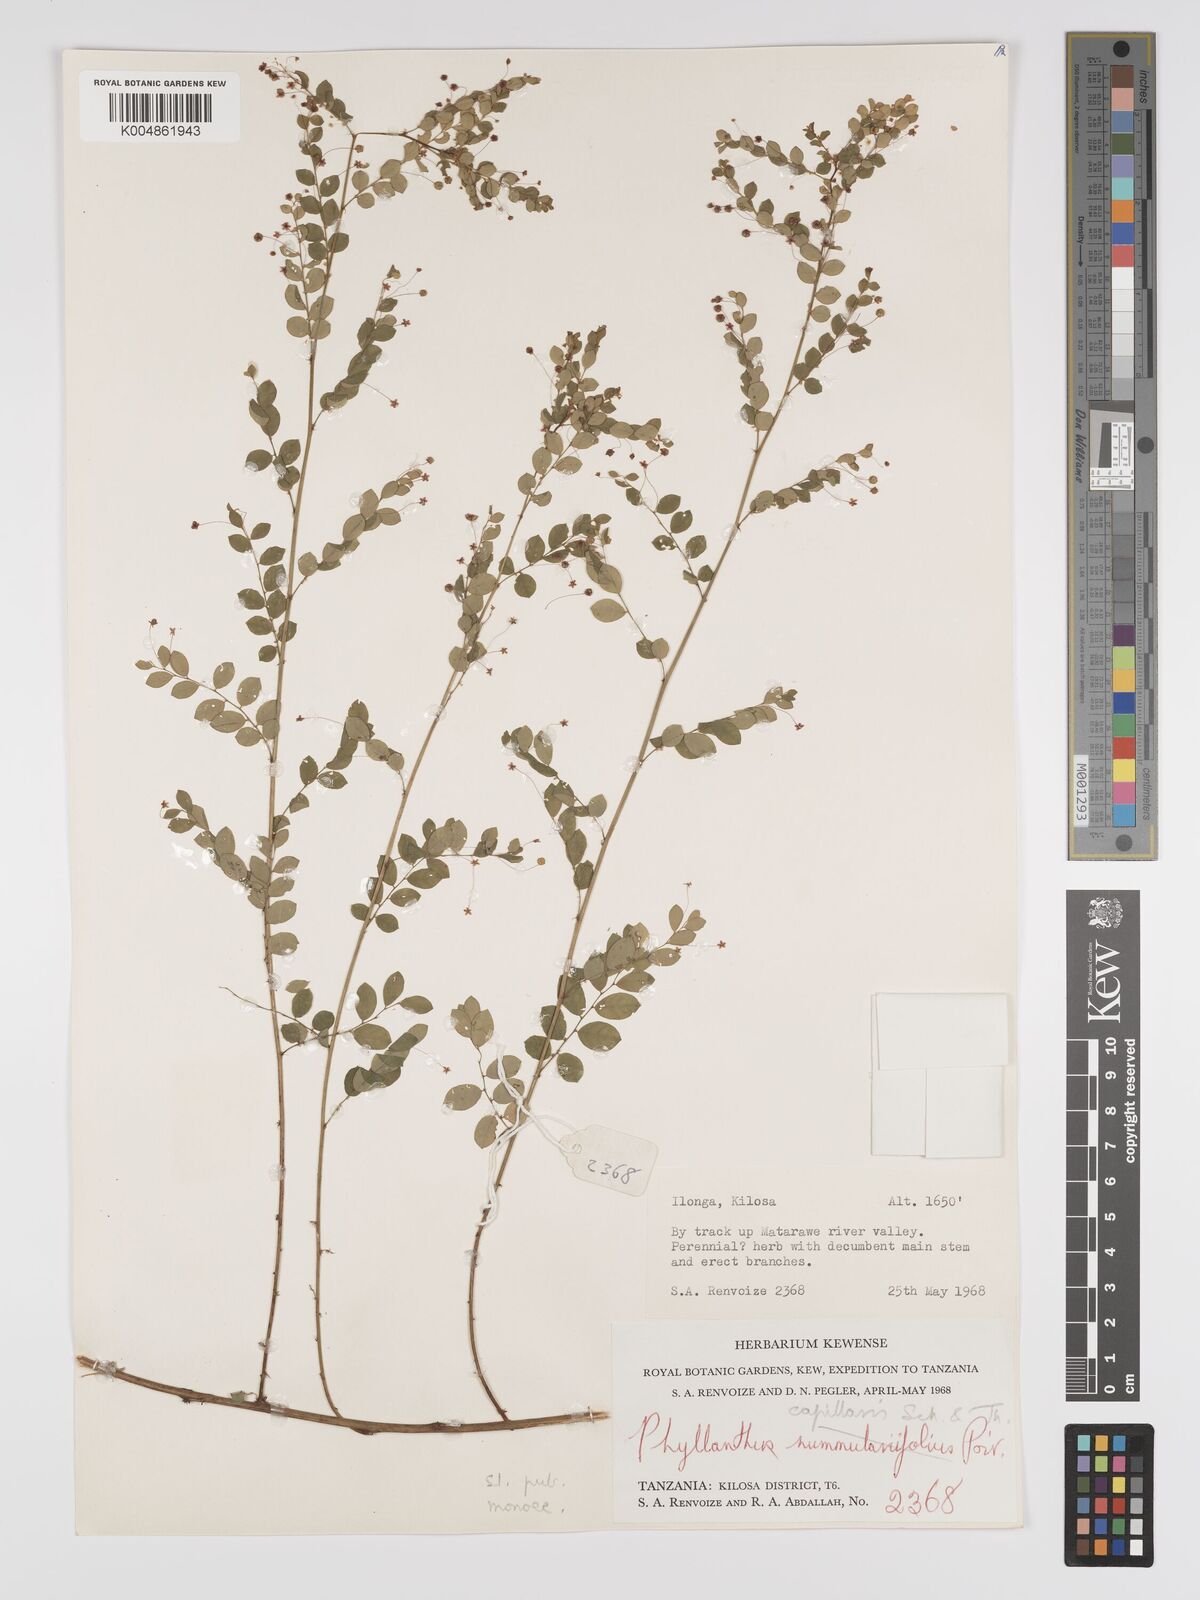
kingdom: Plantae
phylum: Tracheophyta
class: Magnoliopsida
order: Malpighiales
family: Phyllanthaceae
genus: Phyllanthus
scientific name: Phyllanthus nummulariifolius
